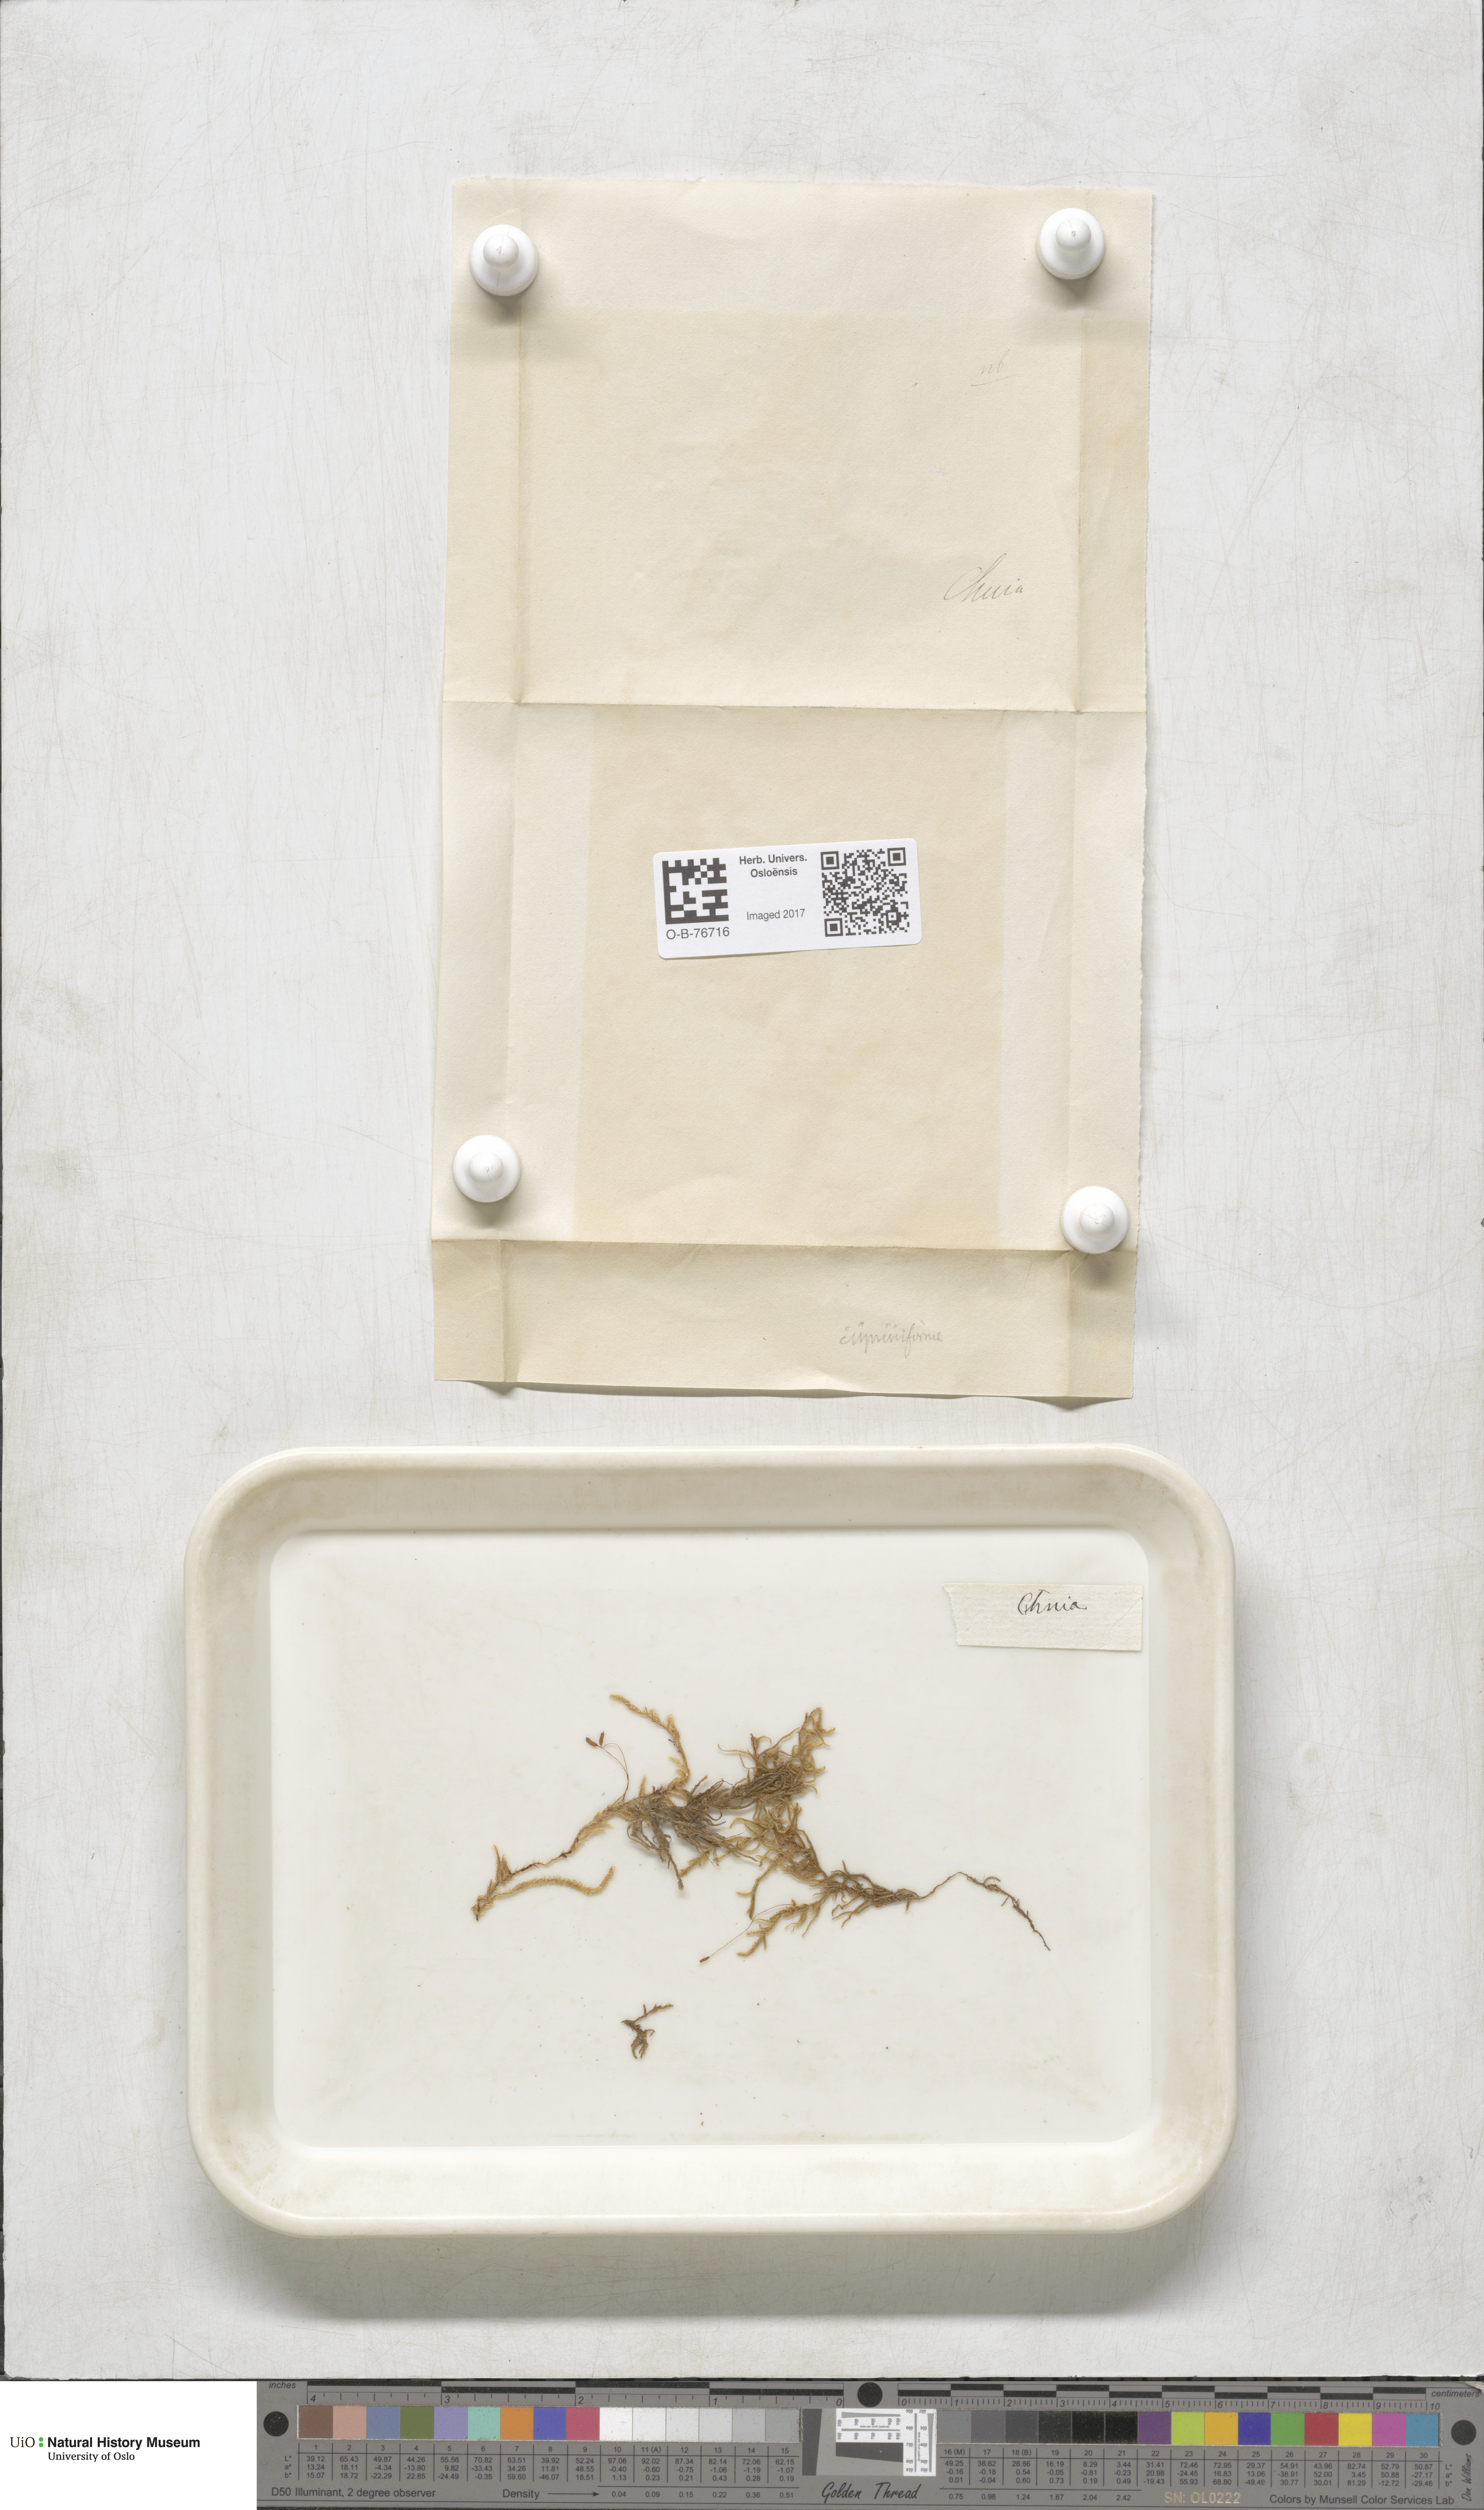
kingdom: Plantae
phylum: Bryophyta
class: Bryopsida
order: Hypnales
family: Hypnaceae
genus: Hypnum
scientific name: Hypnum cupressiforme
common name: Cypress-leaved plait-moss
